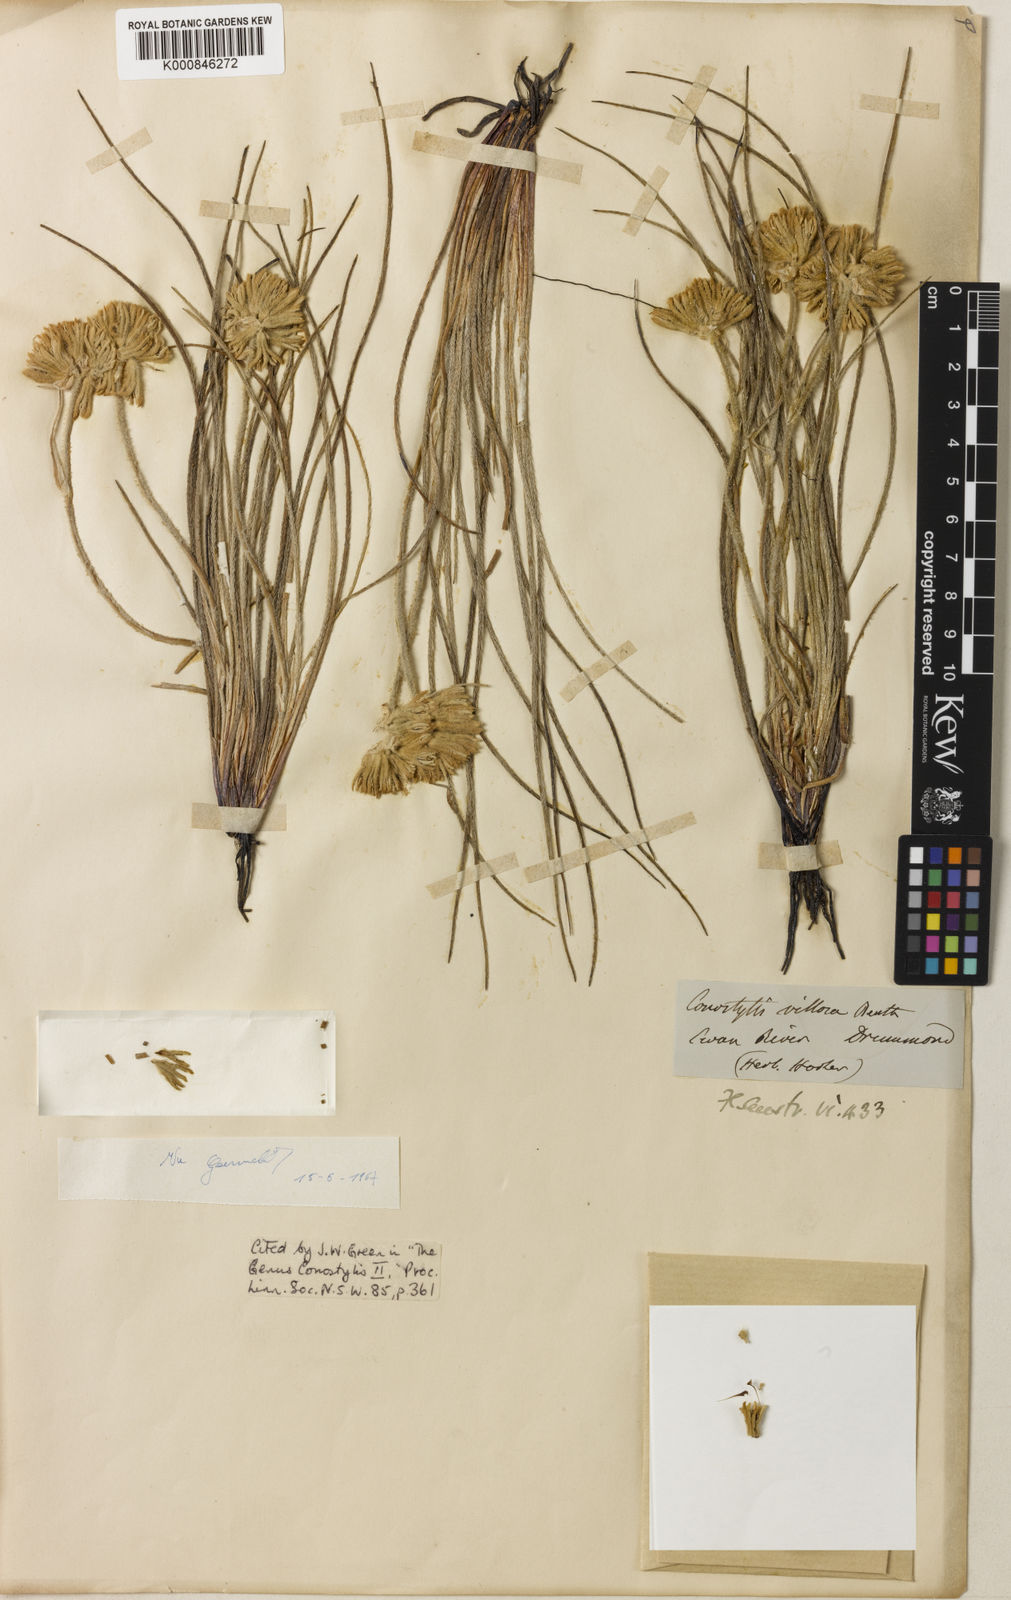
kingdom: Plantae
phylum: Tracheophyta
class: Liliopsida
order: Commelinales
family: Haemodoraceae
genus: Conostylis
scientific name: Conostylis villosa
